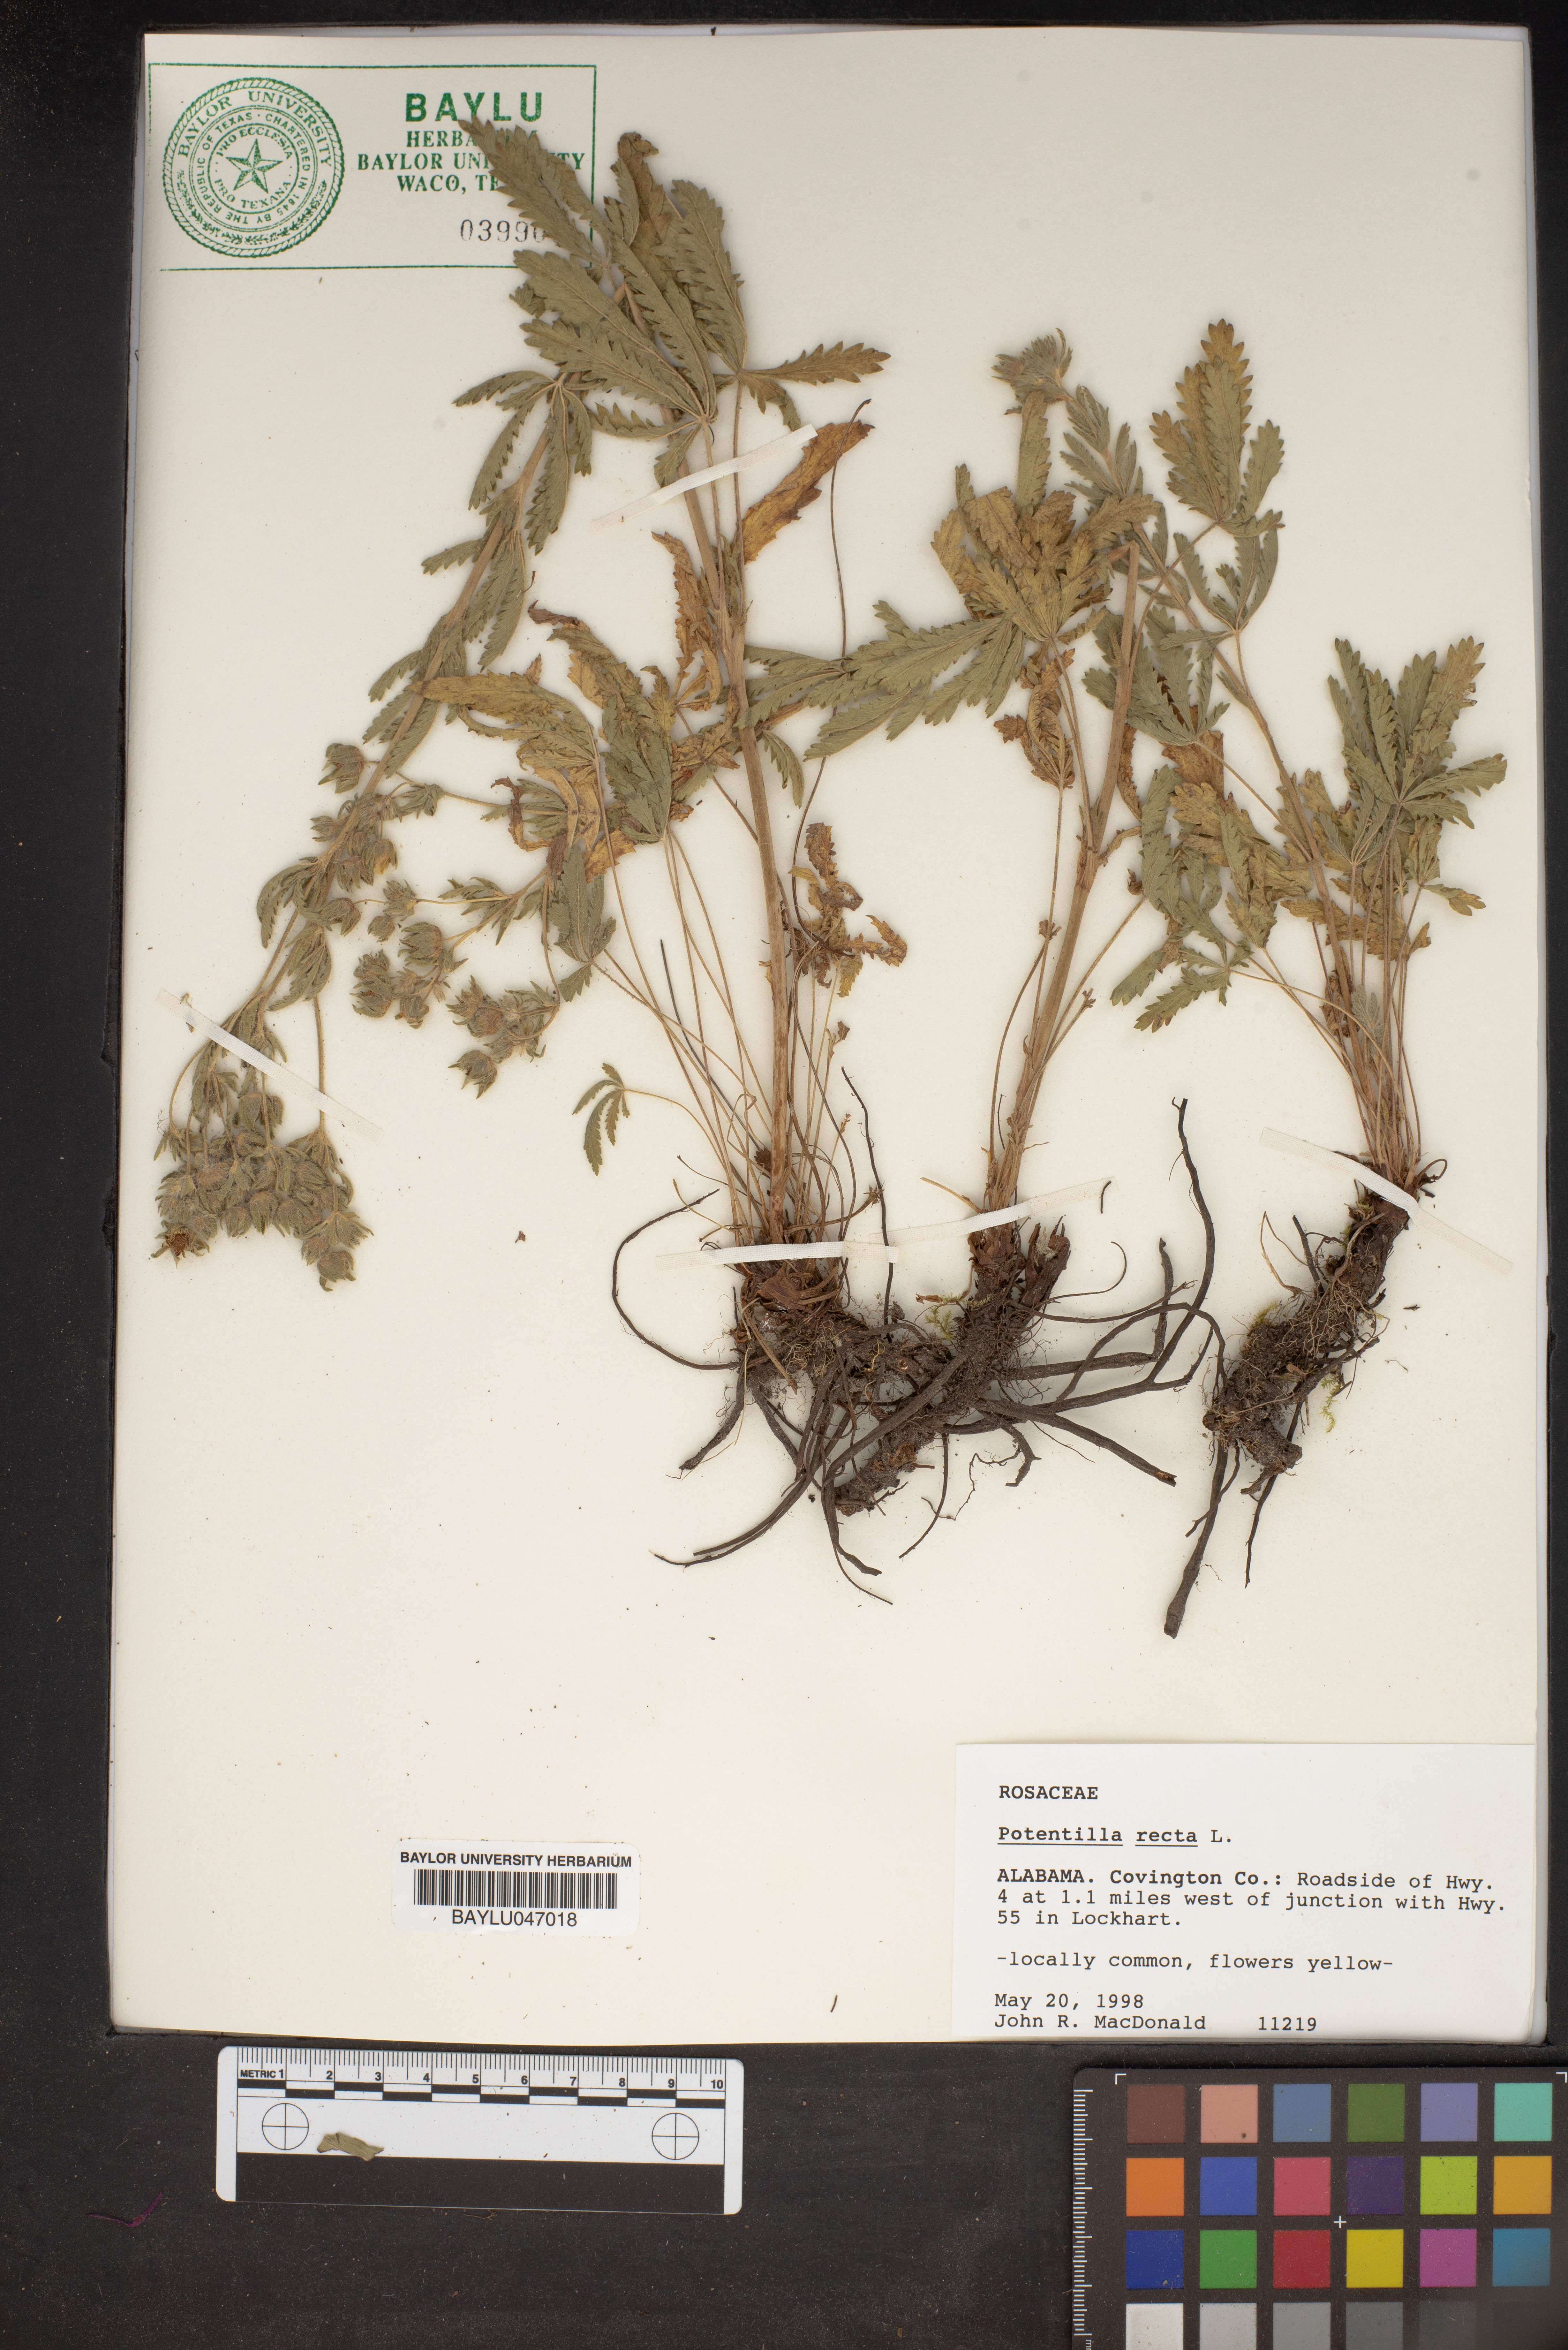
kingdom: Plantae
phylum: Tracheophyta
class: Magnoliopsida
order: Rosales
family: Rosaceae
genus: Potentilla
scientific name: Potentilla recta
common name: Sulphur cinquefoil
